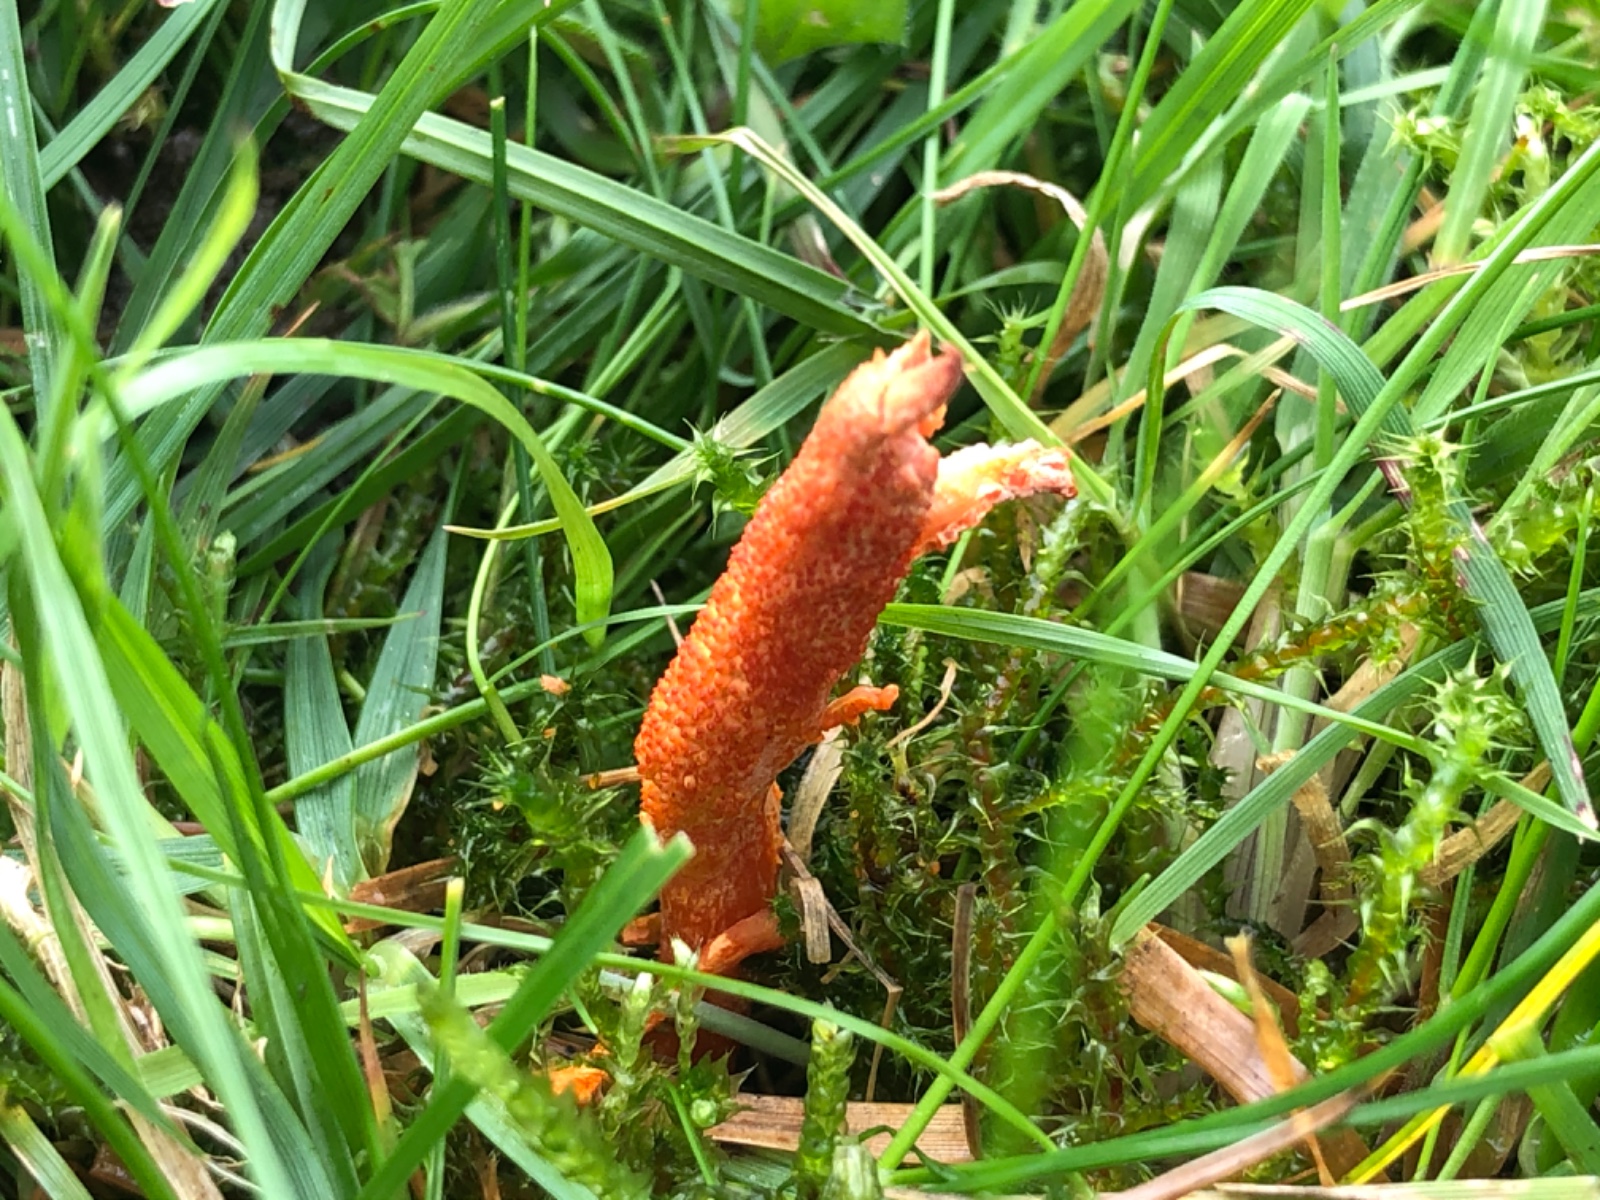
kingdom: Fungi
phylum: Ascomycota
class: Sordariomycetes
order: Hypocreales
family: Cordycipitaceae
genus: Cordyceps
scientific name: Cordyceps militaris
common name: puppe-snyltekølle
